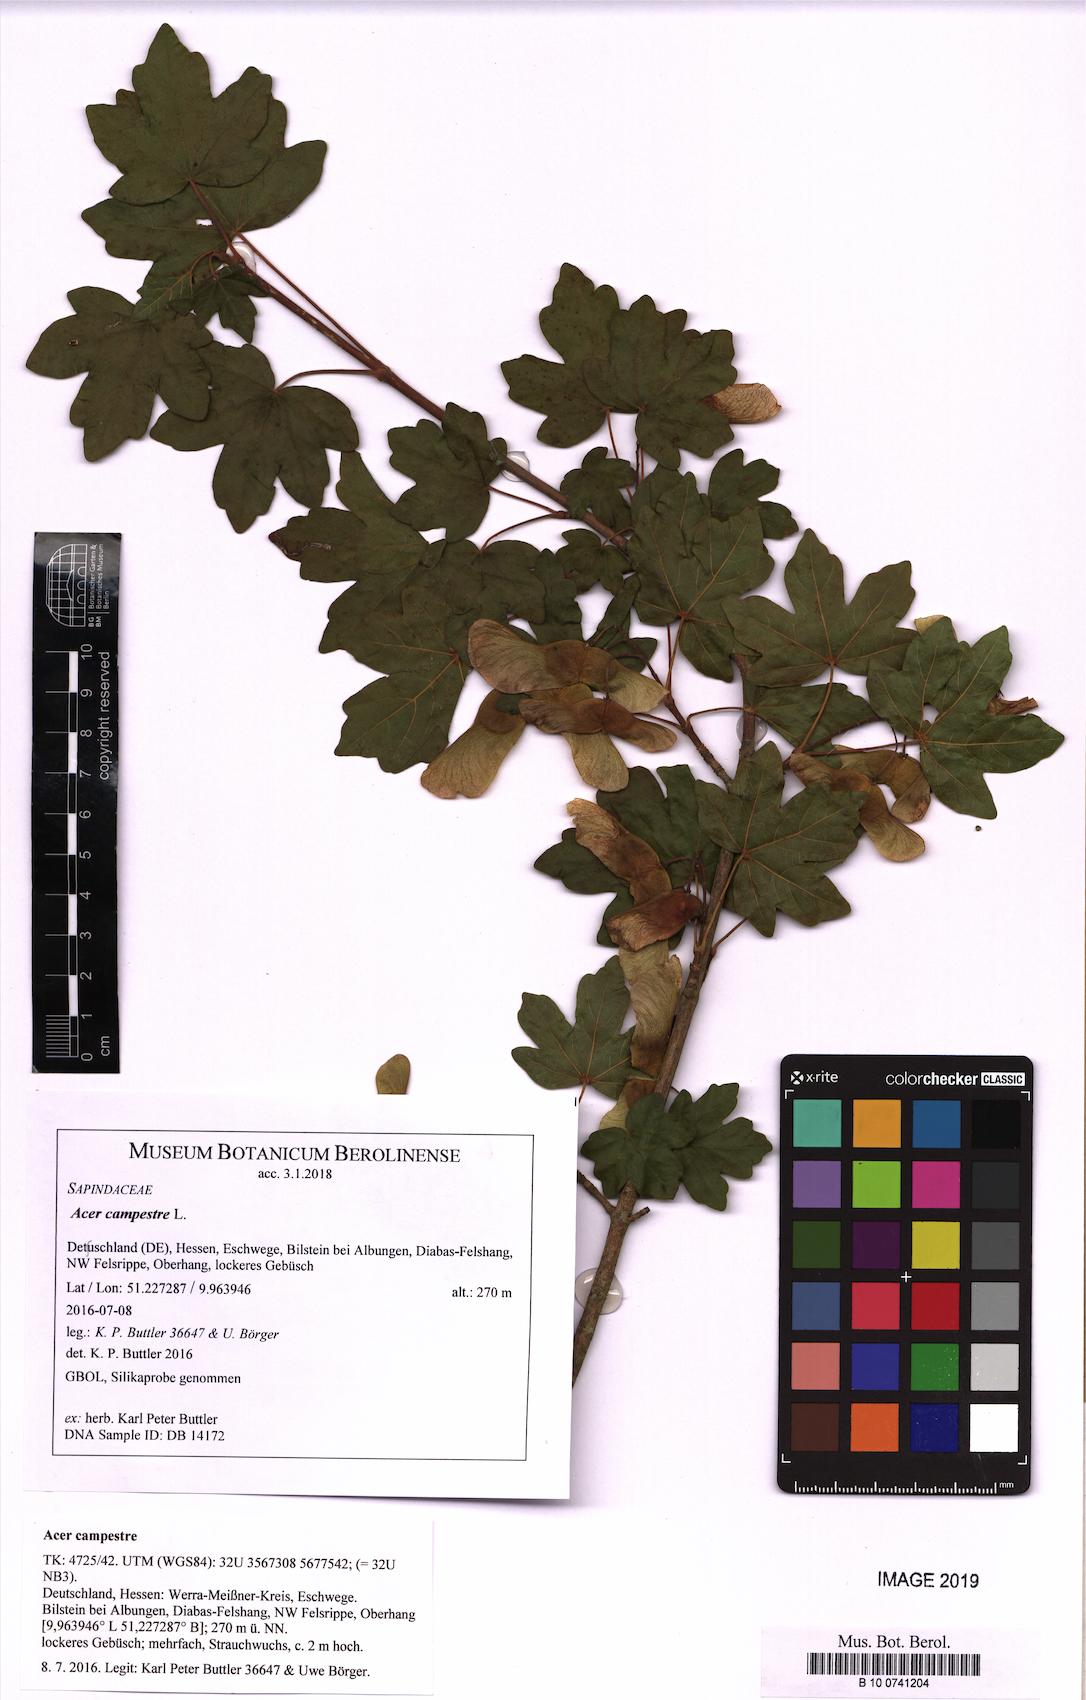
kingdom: Plantae
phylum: Tracheophyta
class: Magnoliopsida
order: Sapindales
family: Sapindaceae
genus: Acer
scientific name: Acer campestre
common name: Field maple
